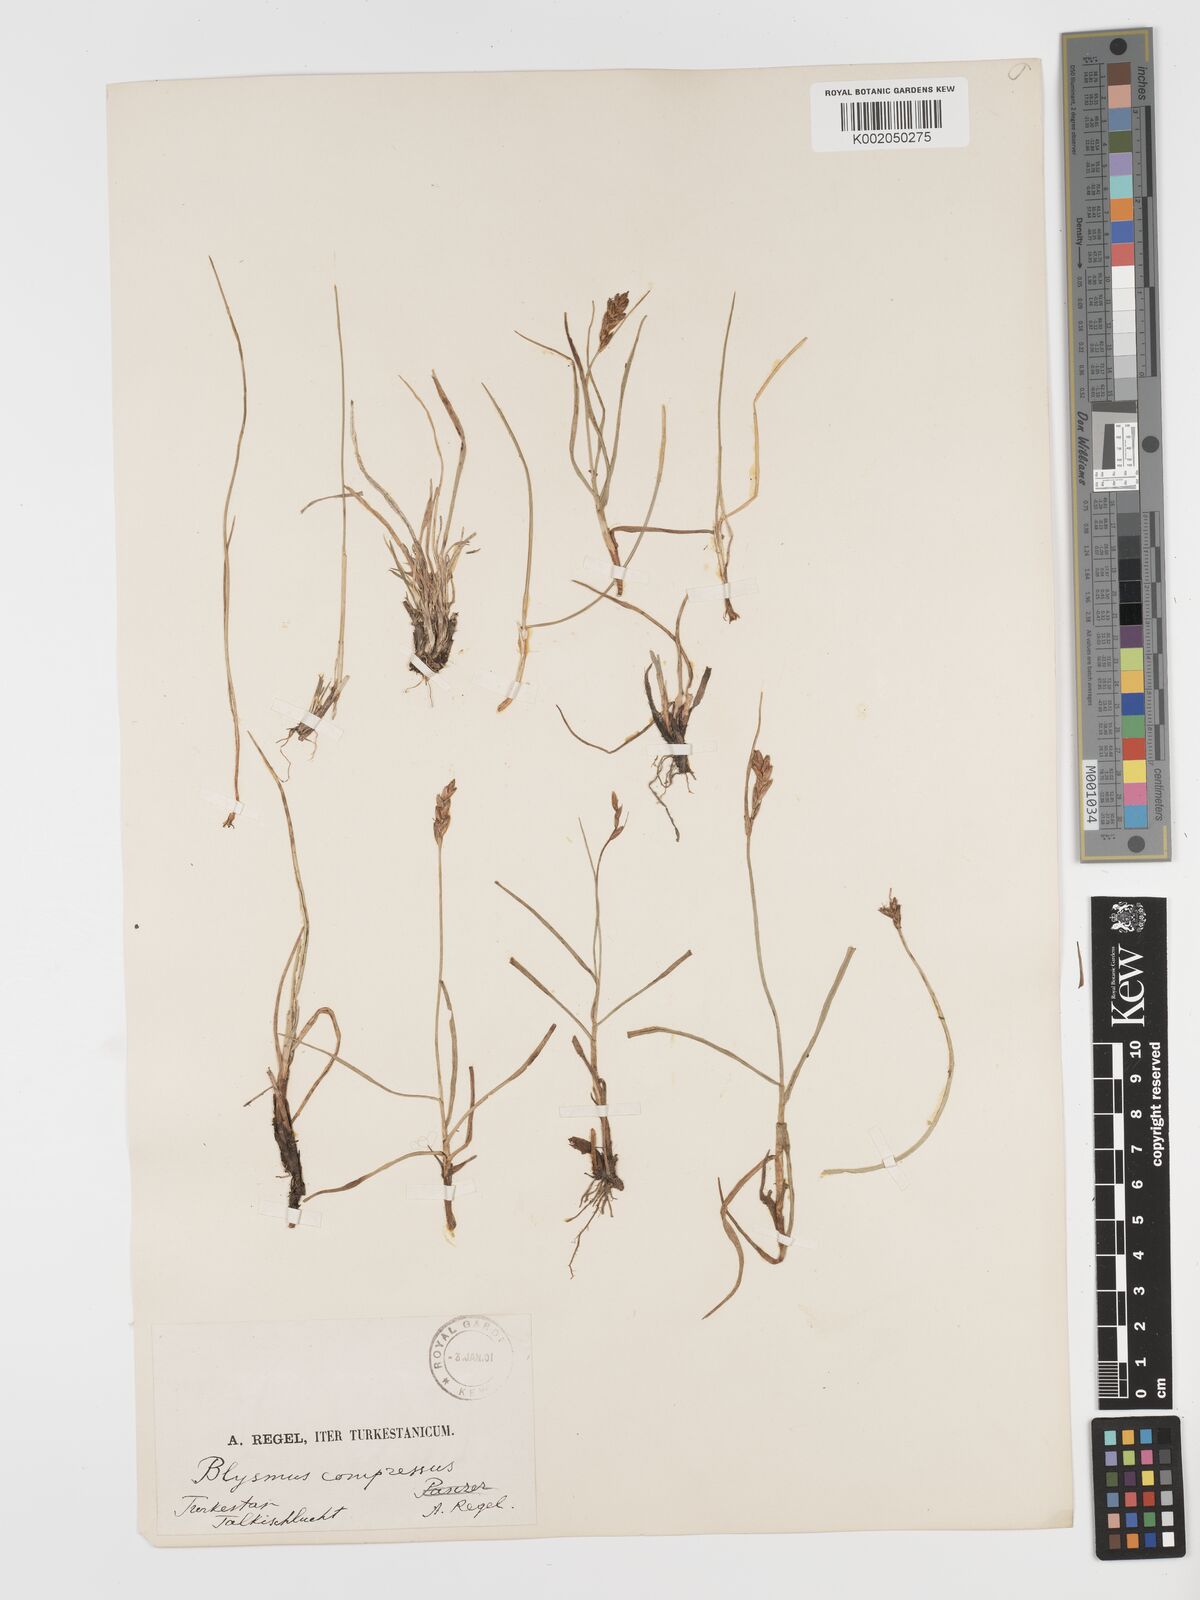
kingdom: Plantae
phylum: Tracheophyta
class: Liliopsida
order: Poales
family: Cyperaceae
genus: Blysmus
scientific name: Blysmus compressus
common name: Flat-sedge
